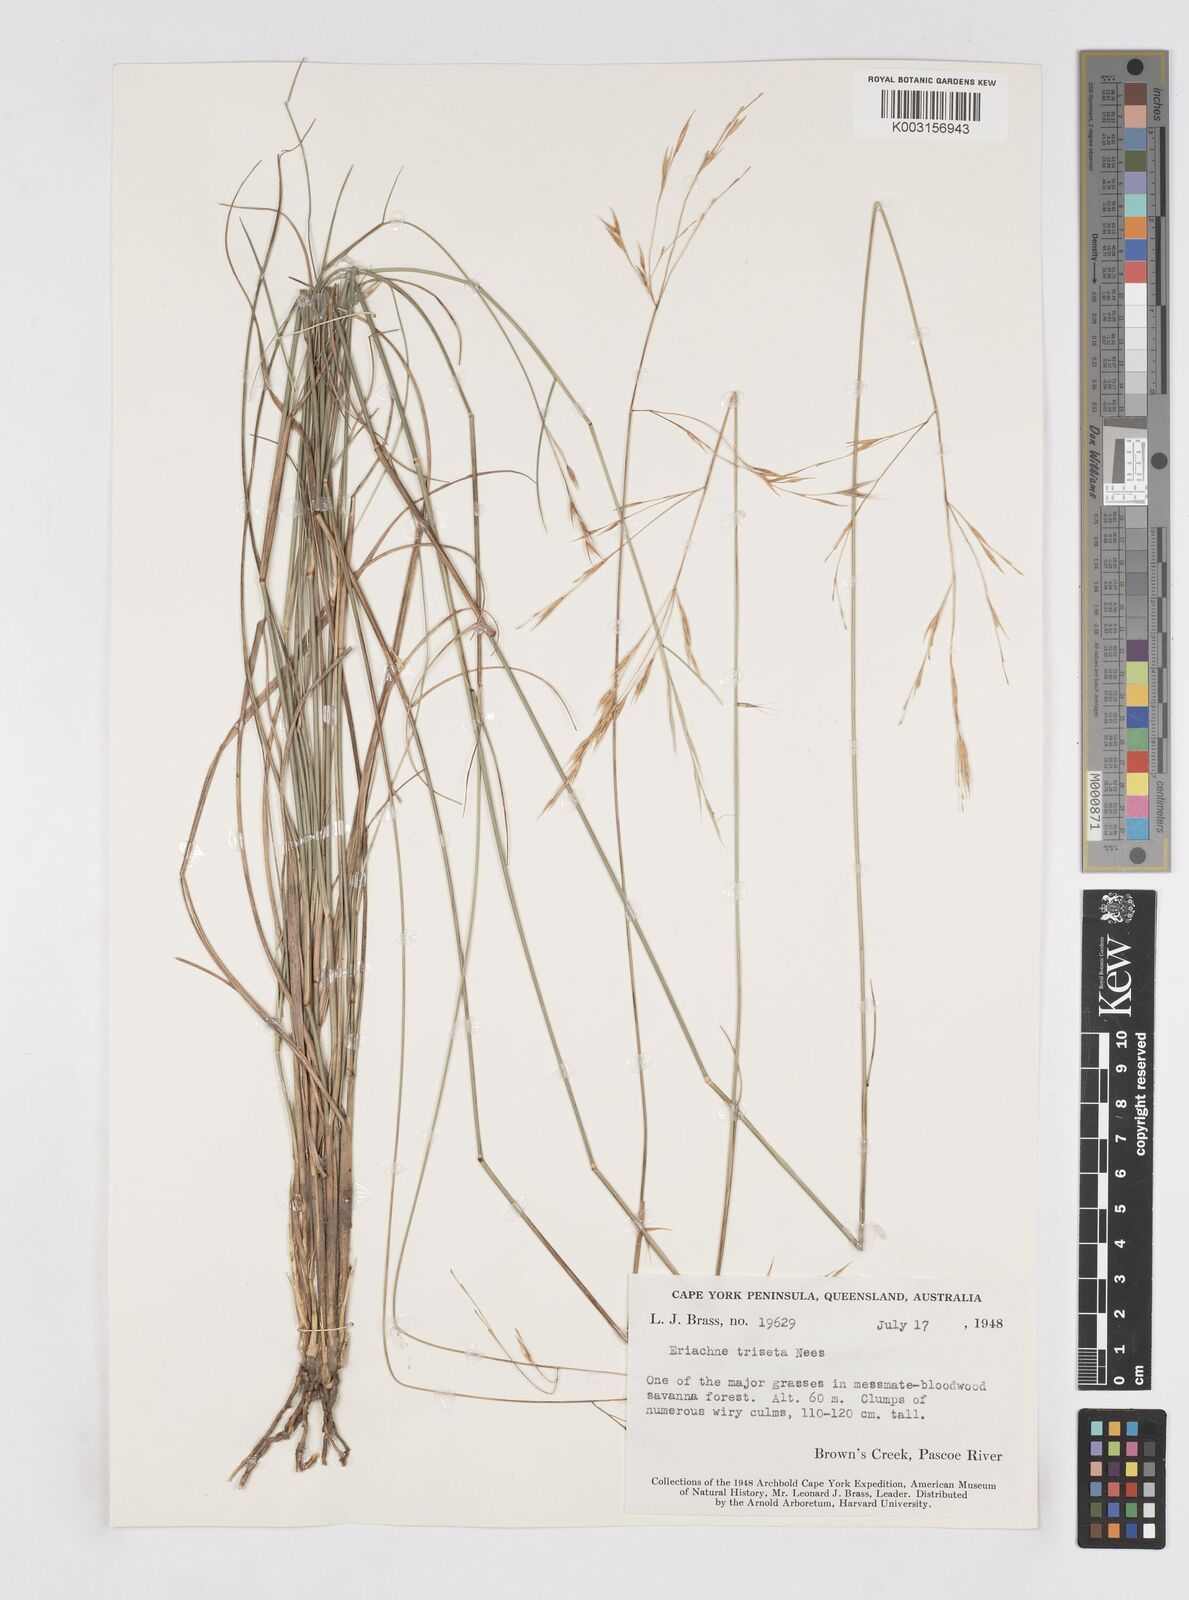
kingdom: Plantae
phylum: Tracheophyta
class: Liliopsida
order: Poales
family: Poaceae
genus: Eriachne
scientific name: Eriachne triseta
